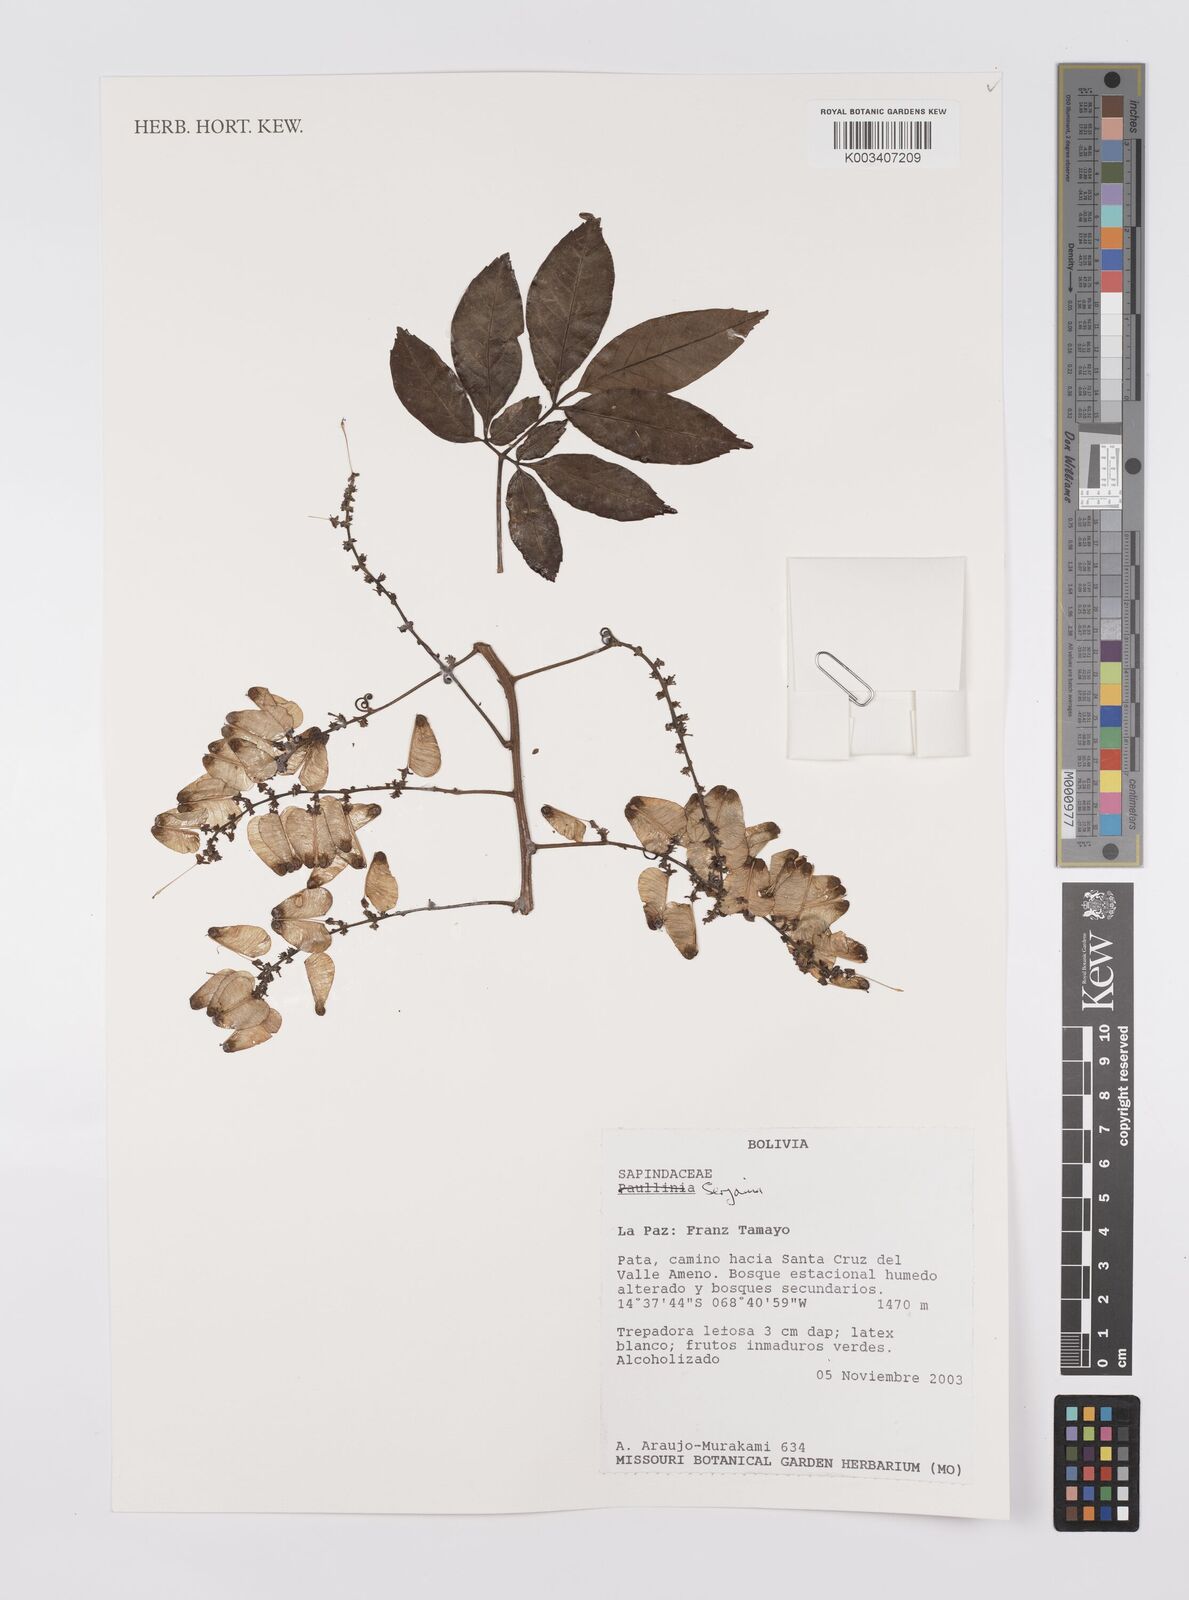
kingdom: Plantae
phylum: Tracheophyta
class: Magnoliopsida
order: Sapindales
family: Sapindaceae
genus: Serjania
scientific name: Serjania
